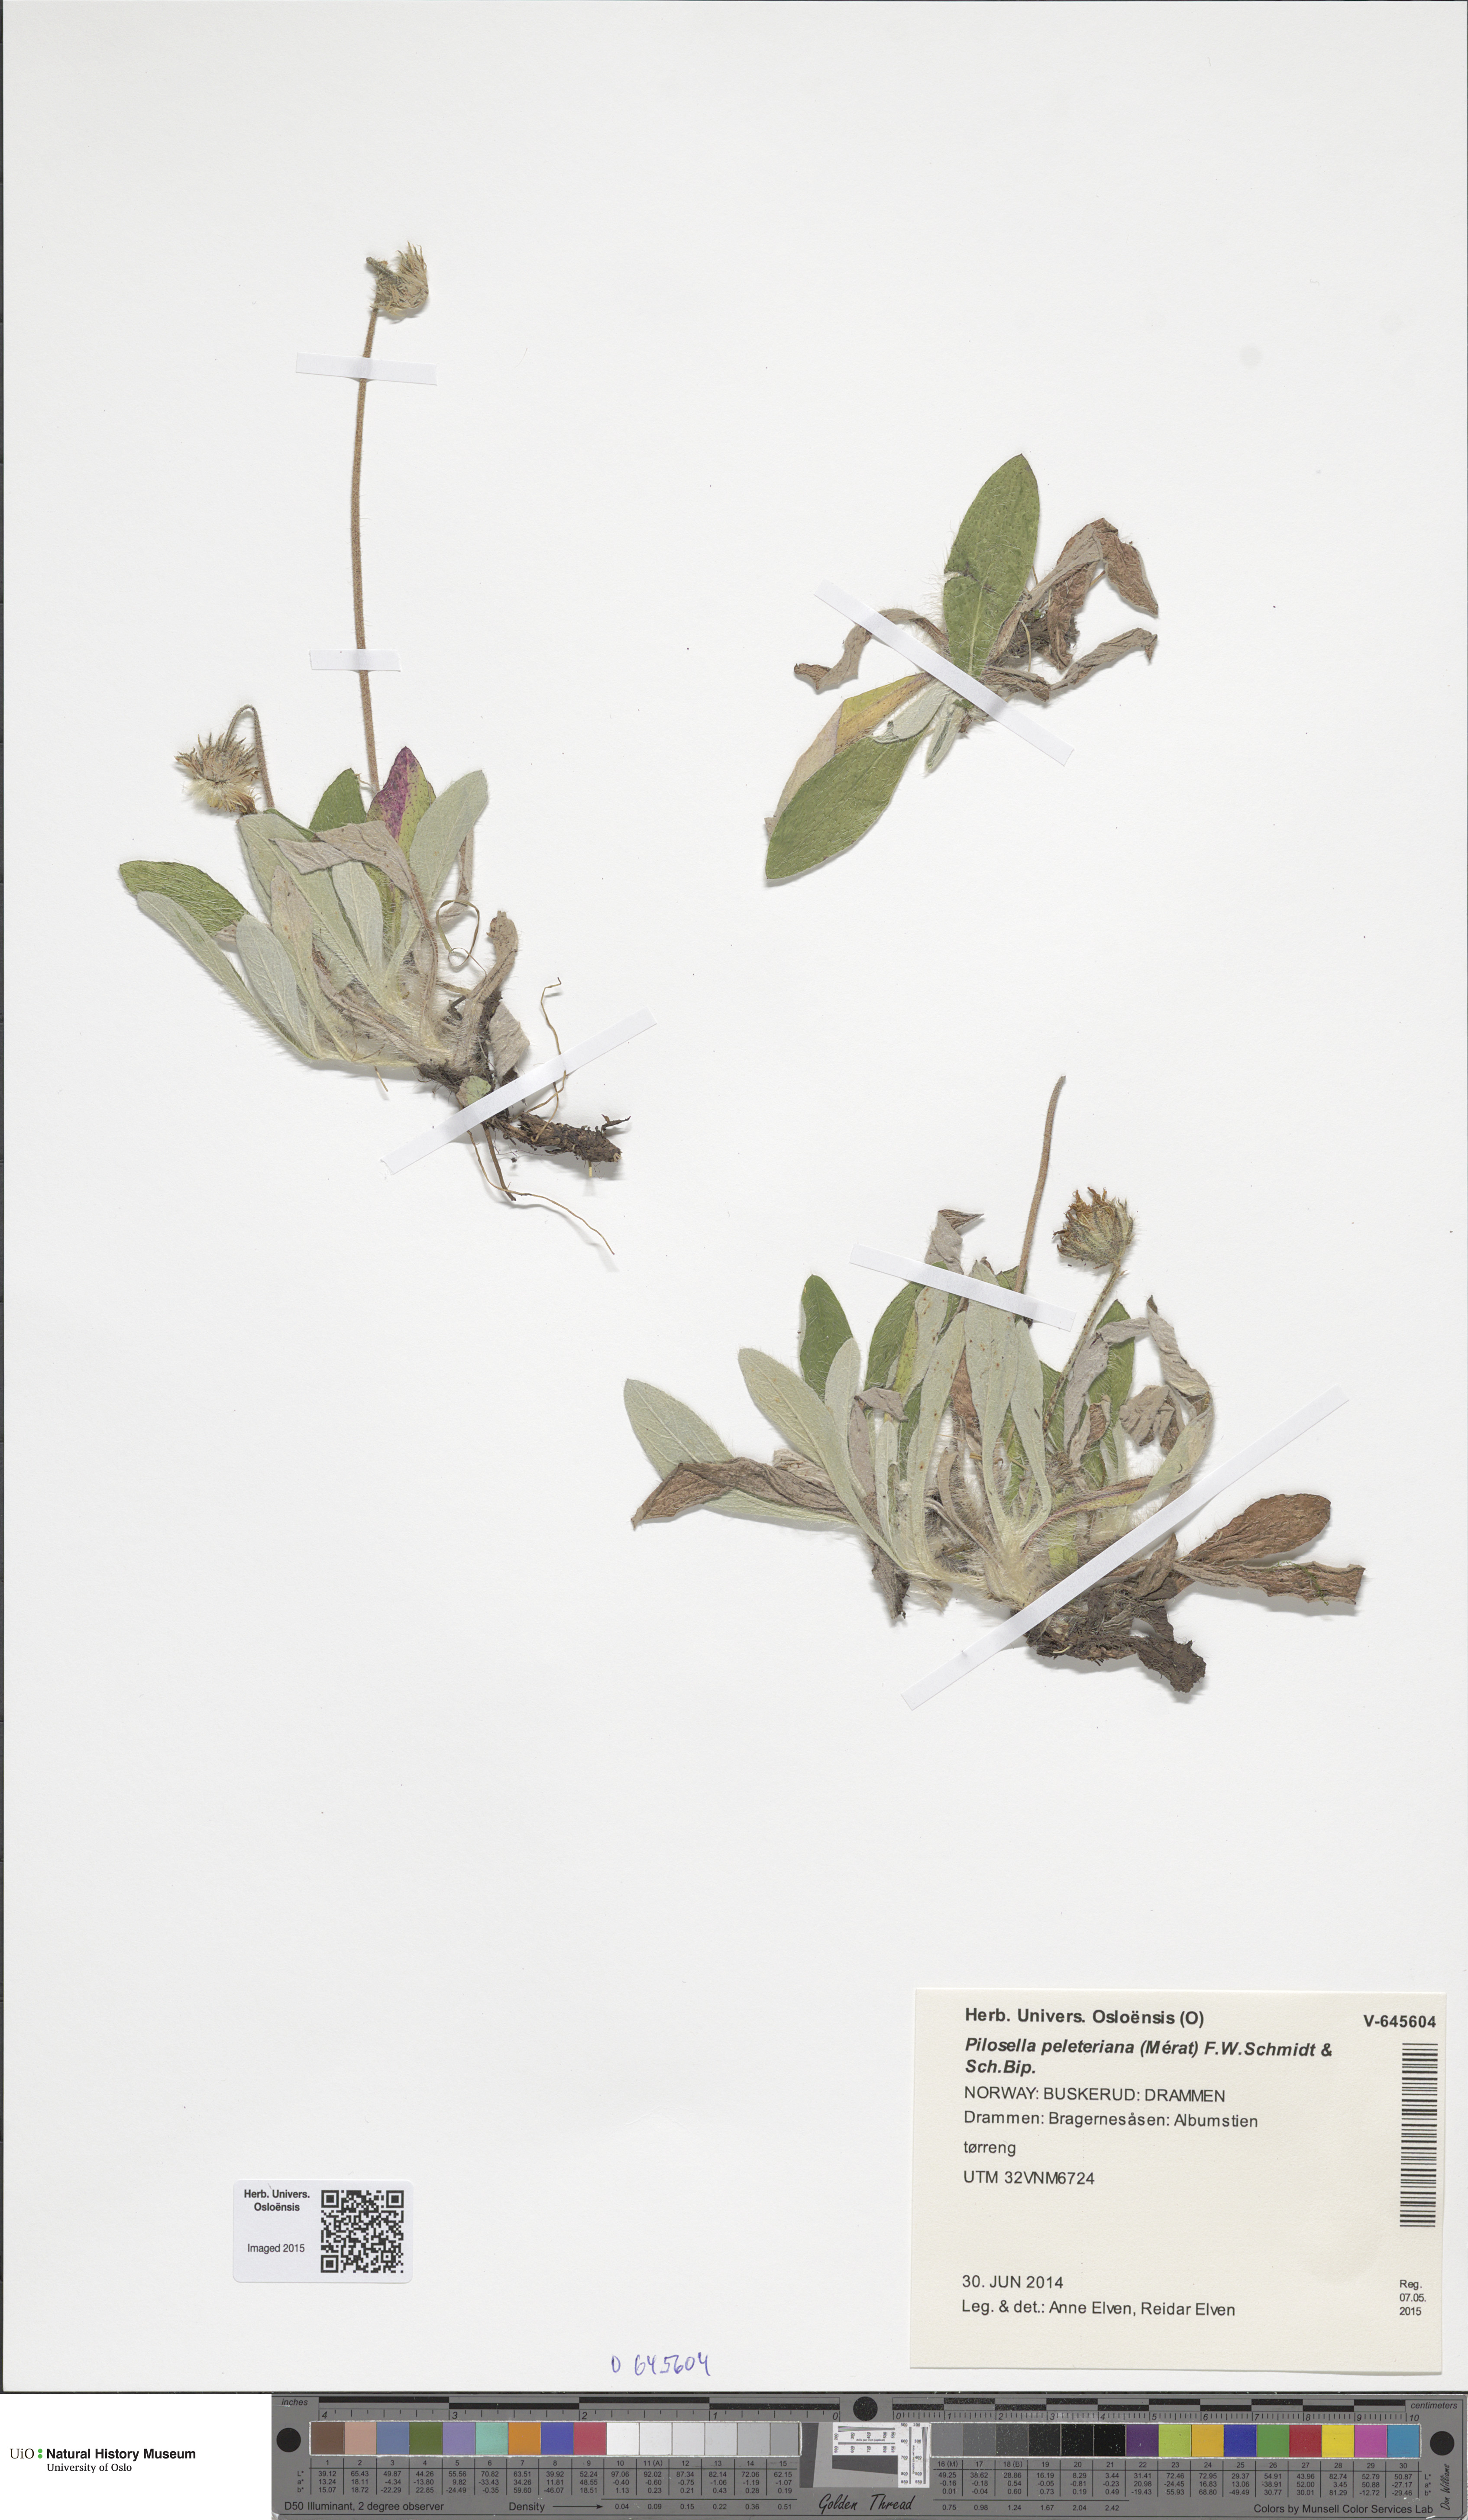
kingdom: Plantae
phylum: Tracheophyta
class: Magnoliopsida
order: Asterales
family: Asteraceae
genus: Pilosella
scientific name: Pilosella peleteriana
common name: Shaggy mouse-ear-hawkweed
